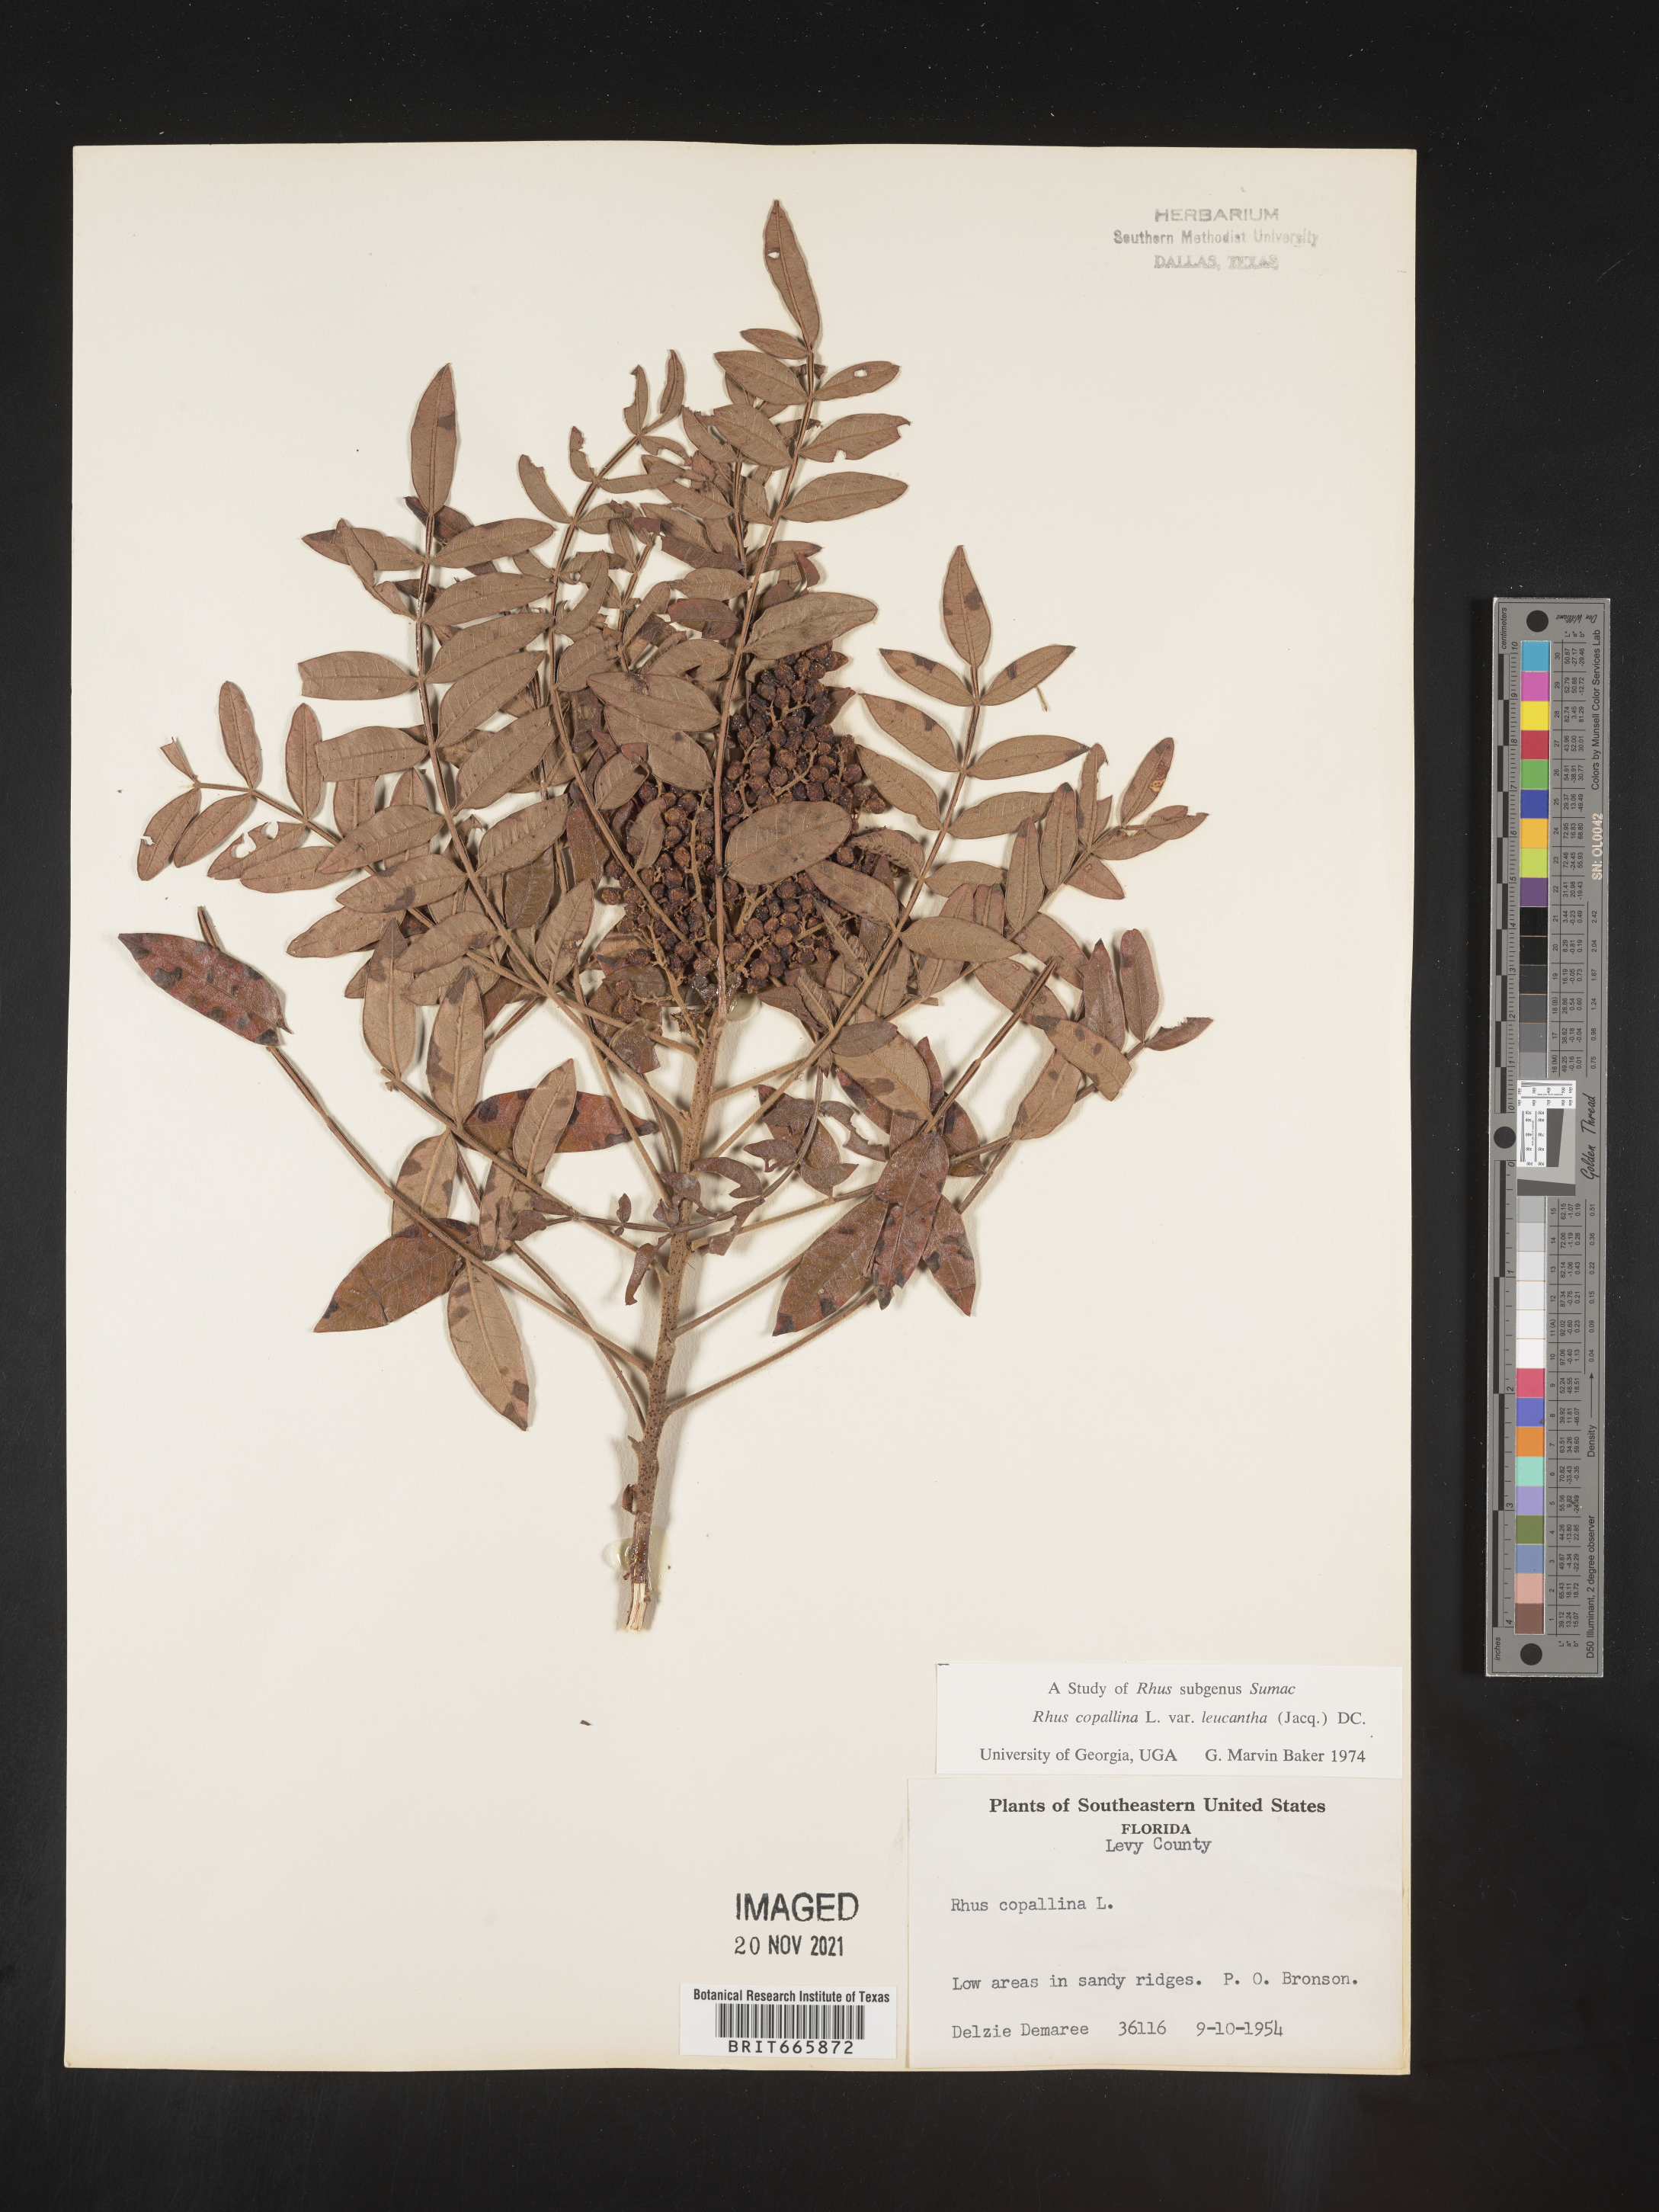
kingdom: Plantae
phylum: Tracheophyta
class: Magnoliopsida
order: Sapindales
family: Anacardiaceae
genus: Rhus
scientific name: Rhus copallina
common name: Shining sumac
